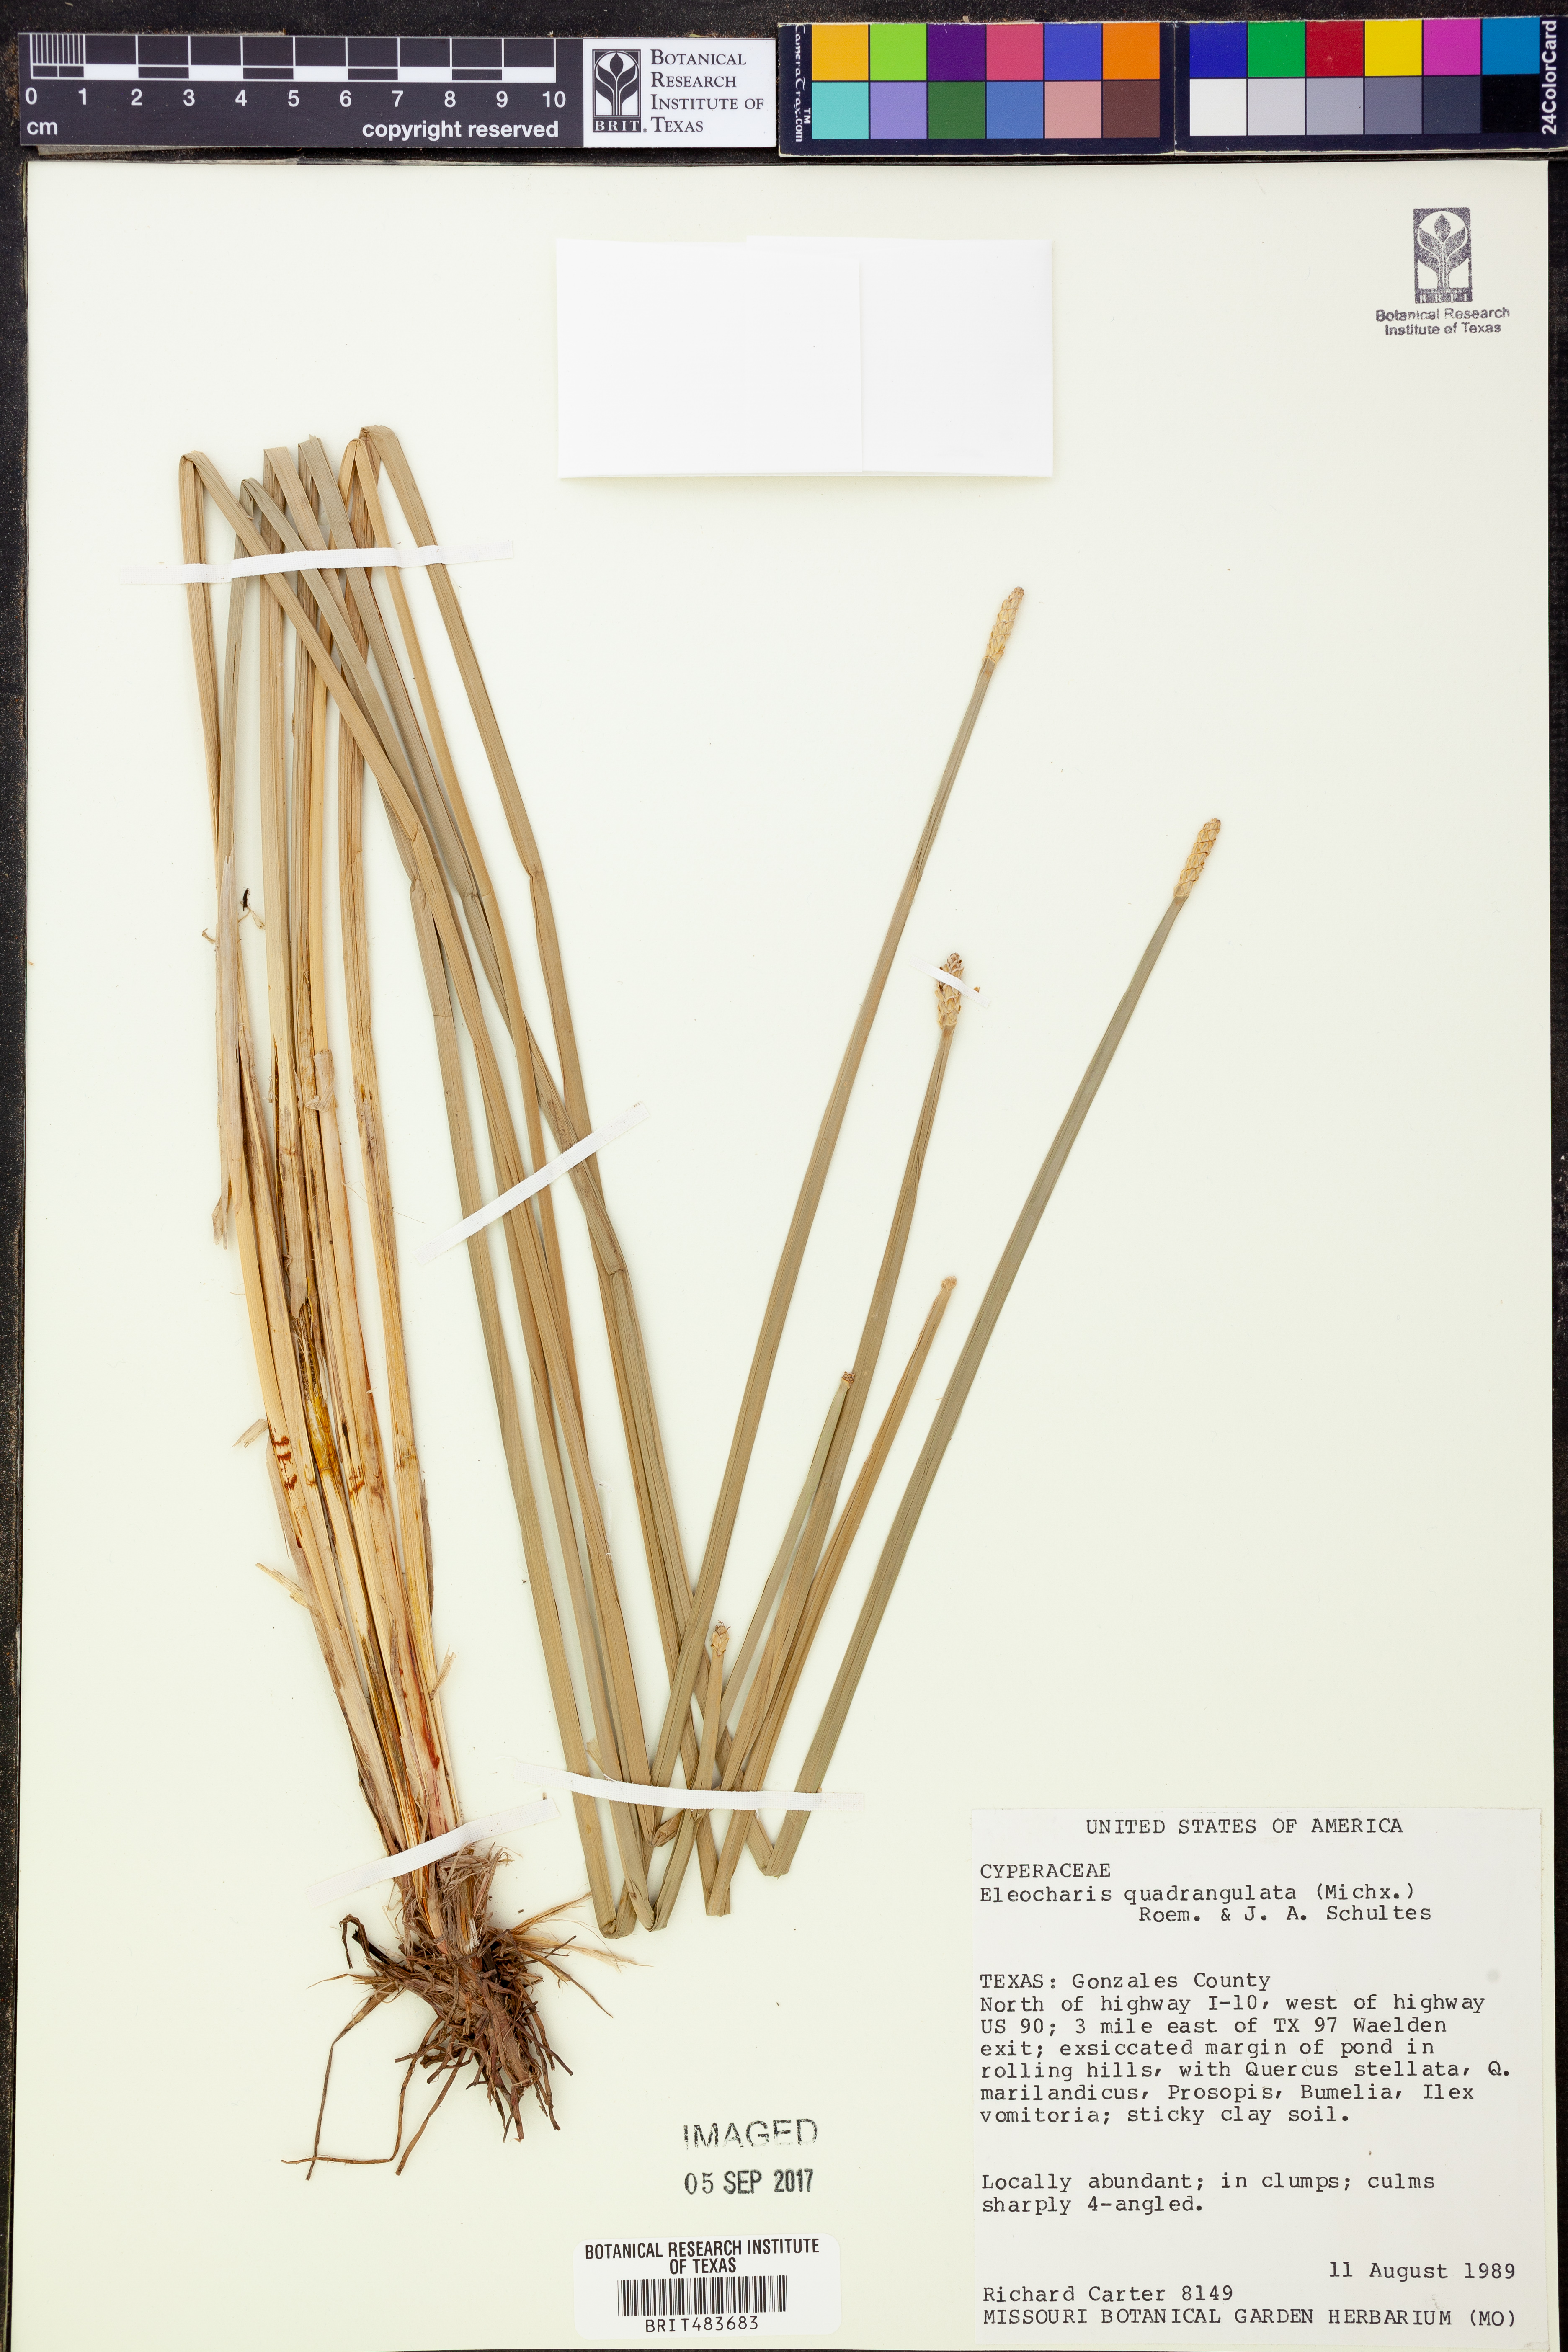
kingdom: Plantae
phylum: Tracheophyta
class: Liliopsida
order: Poales
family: Cyperaceae
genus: Eleocharis
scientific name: Eleocharis quadrangulata
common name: Square-stem spike-rush
